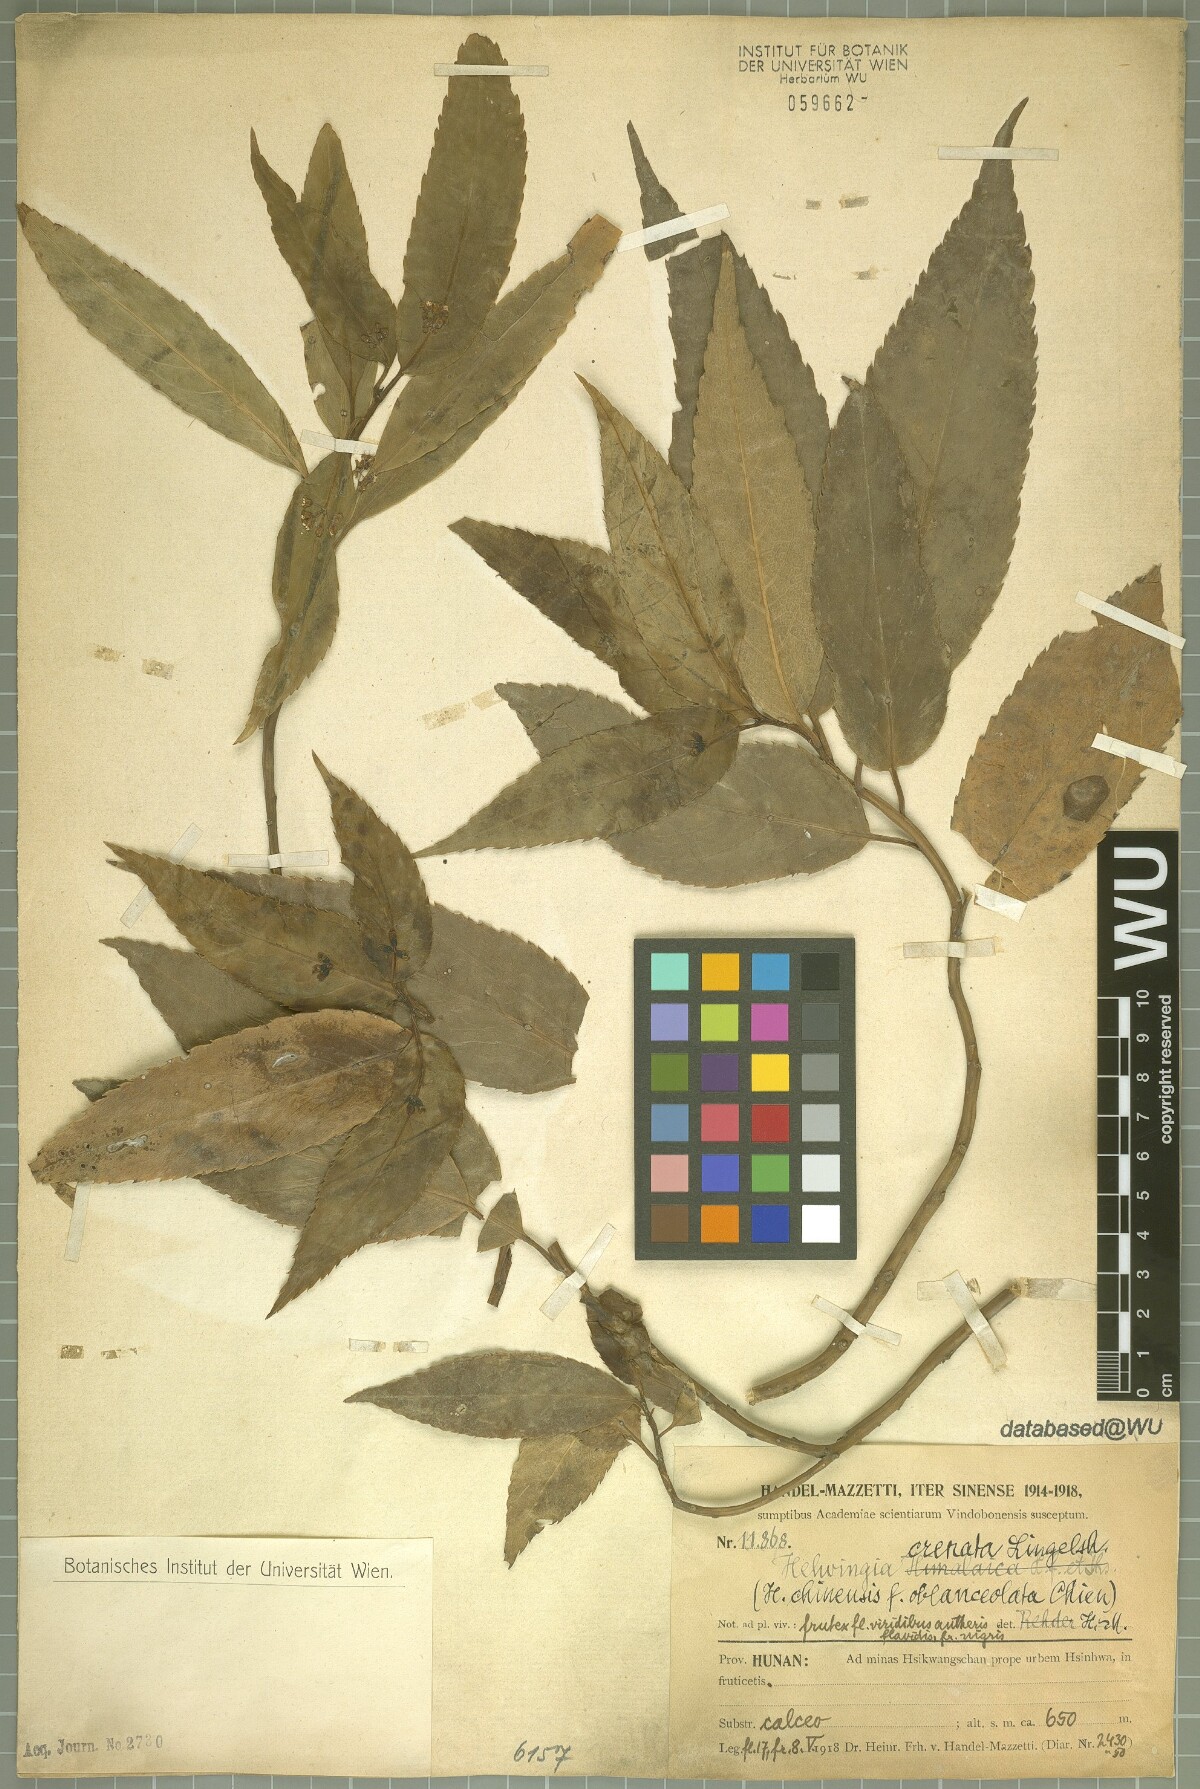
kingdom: Plantae
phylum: Tracheophyta
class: Magnoliopsida
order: Aquifoliales
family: Helwingiaceae
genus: Helwingia
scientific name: Helwingia crenata
